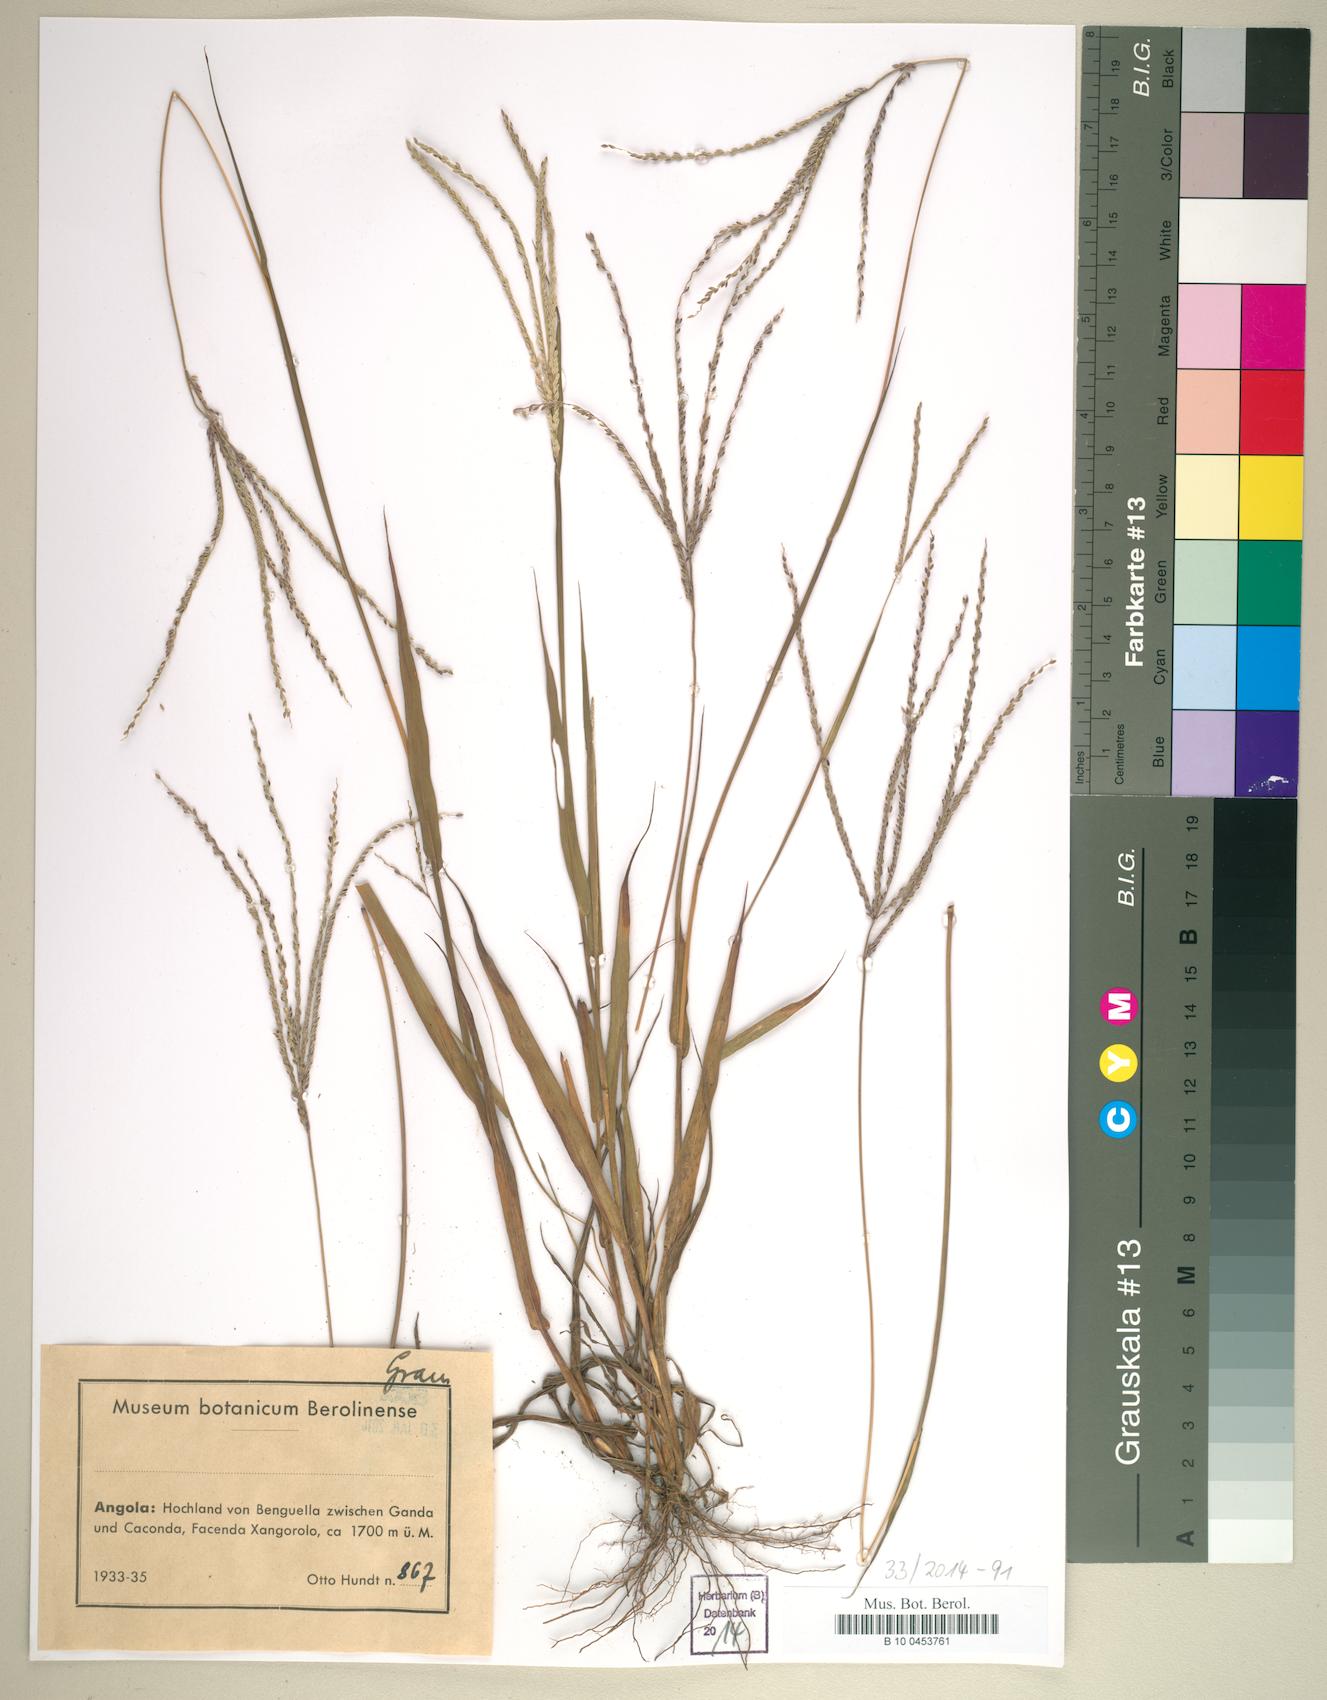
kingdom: Plantae
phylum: Tracheophyta
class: Liliopsida
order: Poales
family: Poaceae
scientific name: Poaceae
